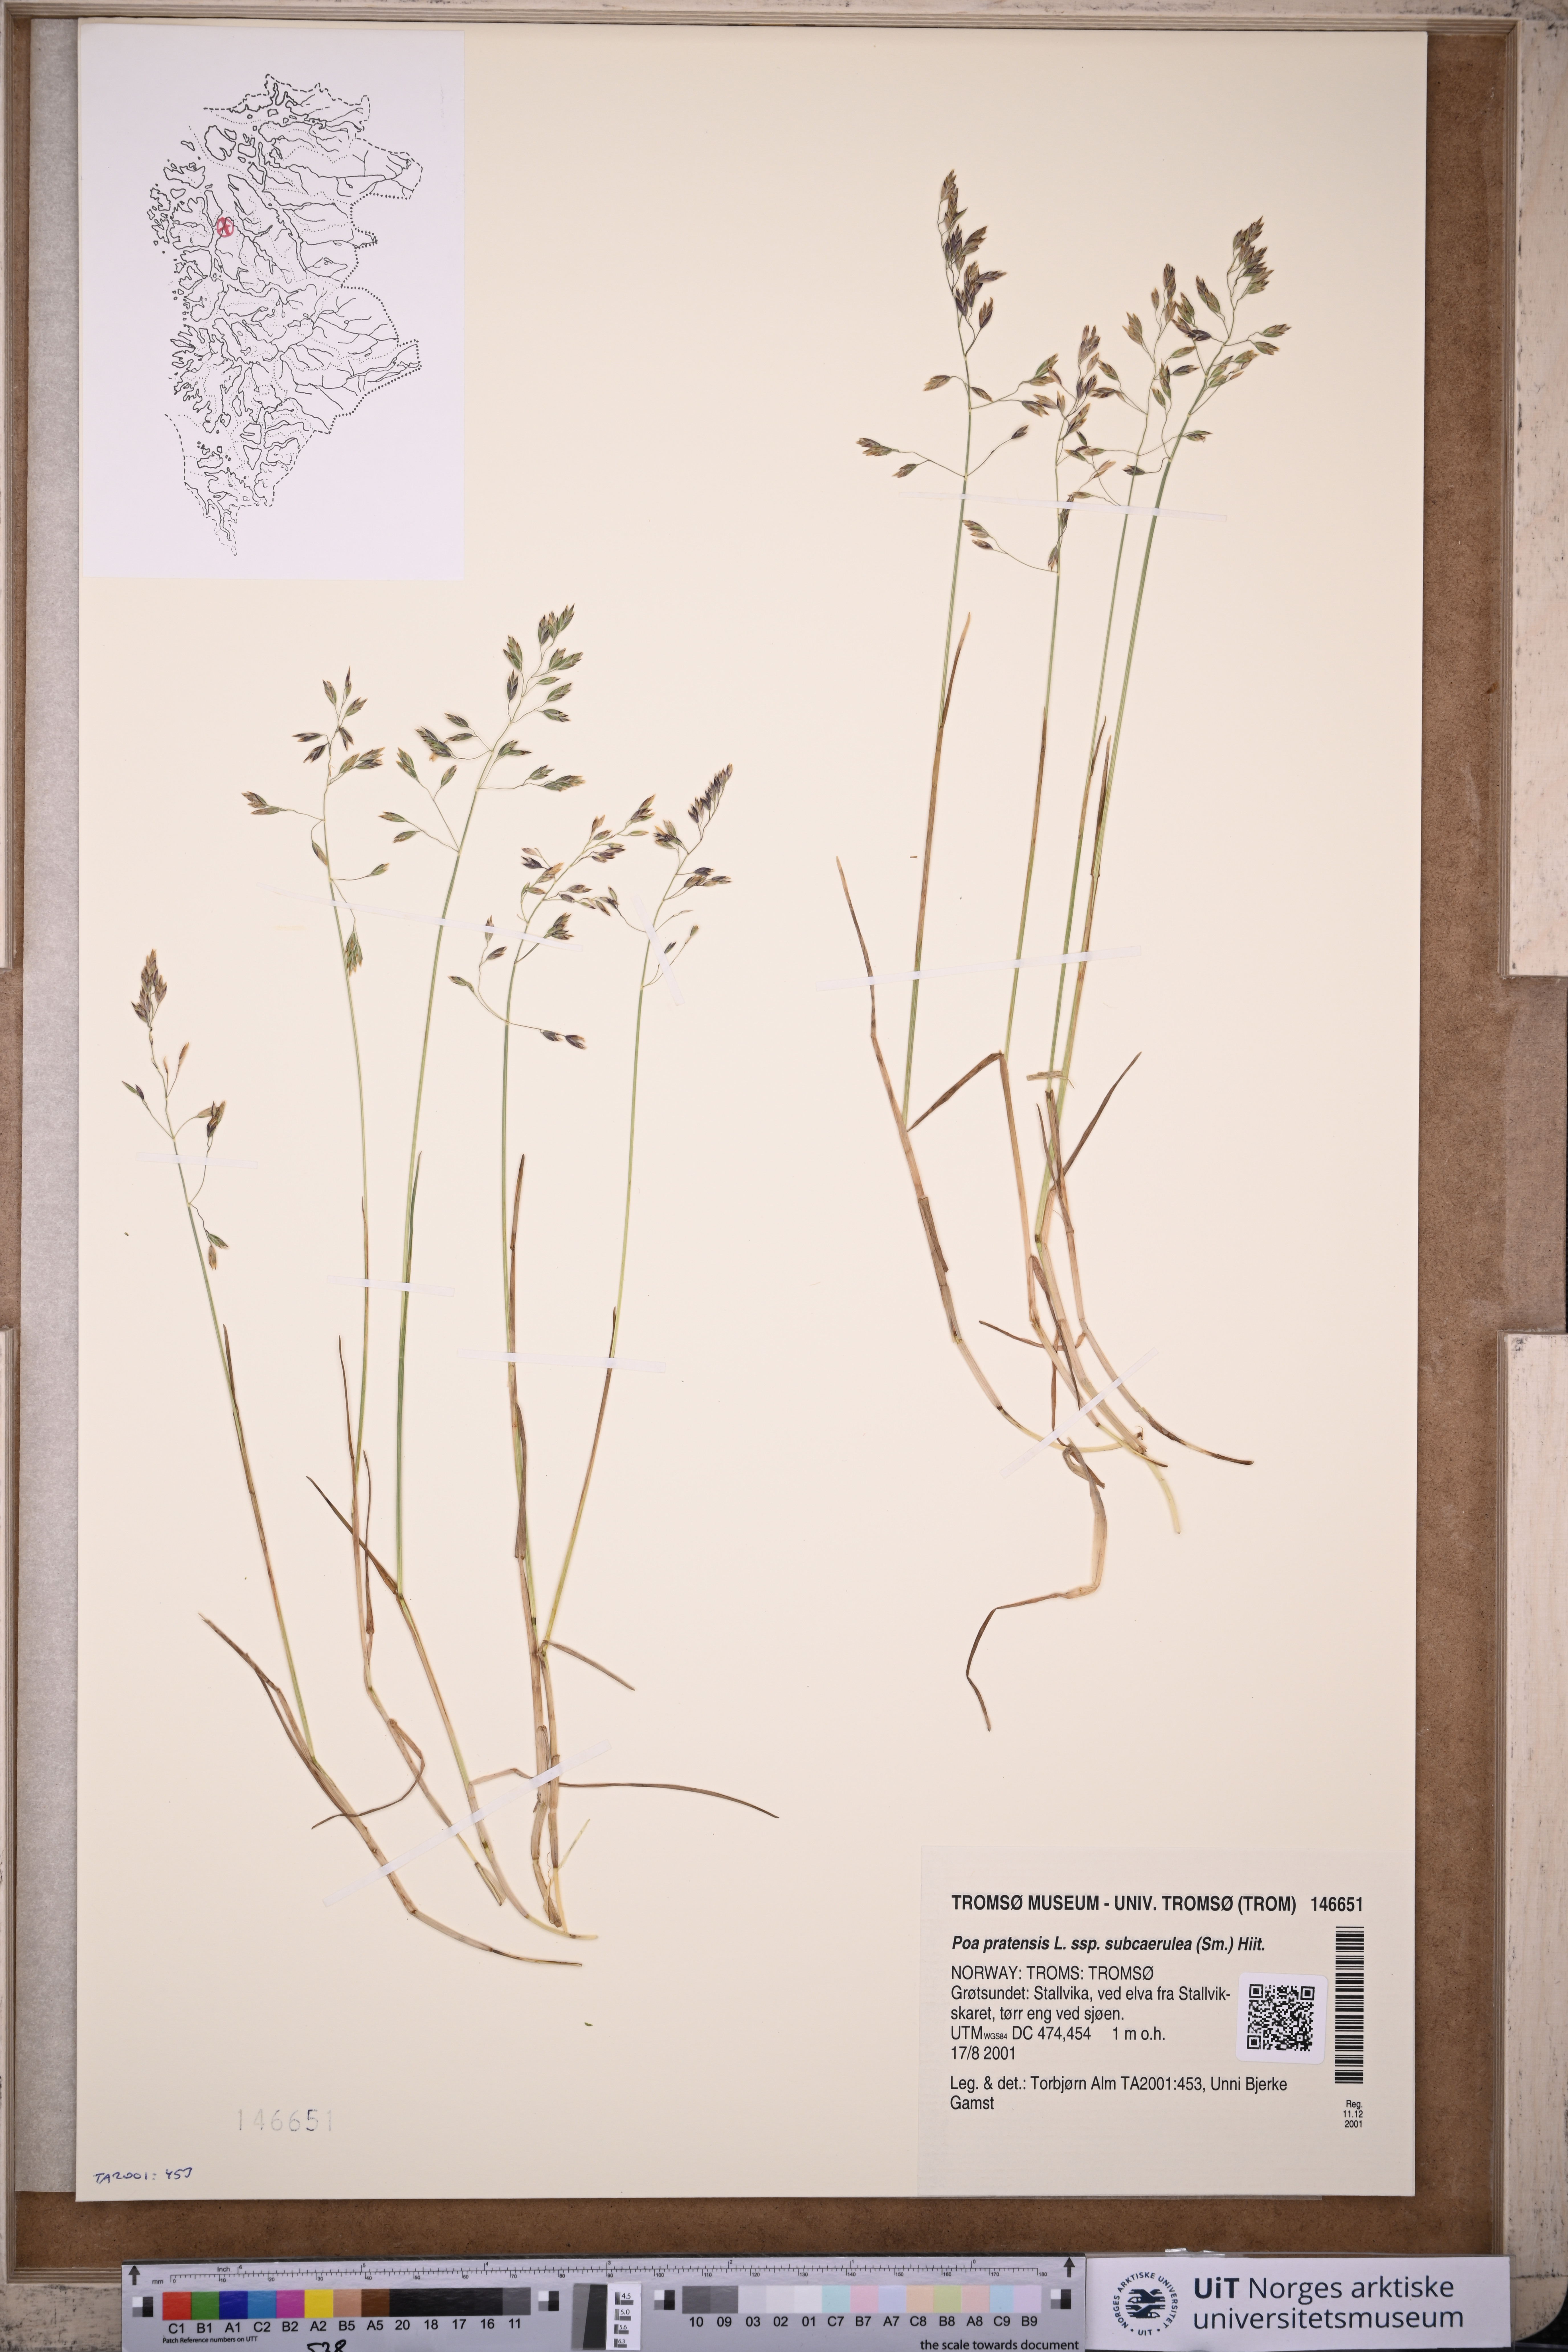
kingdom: Plantae
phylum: Tracheophyta
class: Liliopsida
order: Poales
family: Poaceae
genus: Poa
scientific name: Poa humilis
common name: Spreading meadow-grass
